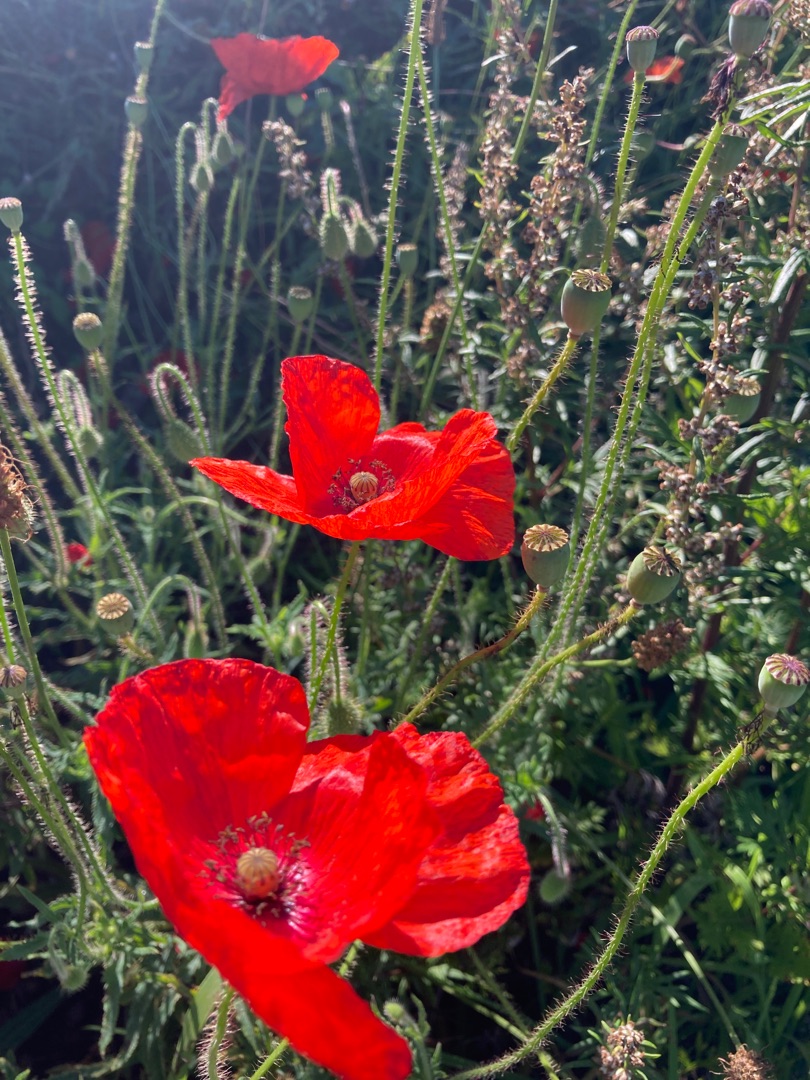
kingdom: Plantae
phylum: Tracheophyta
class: Magnoliopsida
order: Ranunculales
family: Papaveraceae
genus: Papaver
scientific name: Papaver rhoeas
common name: Korn-valmue
